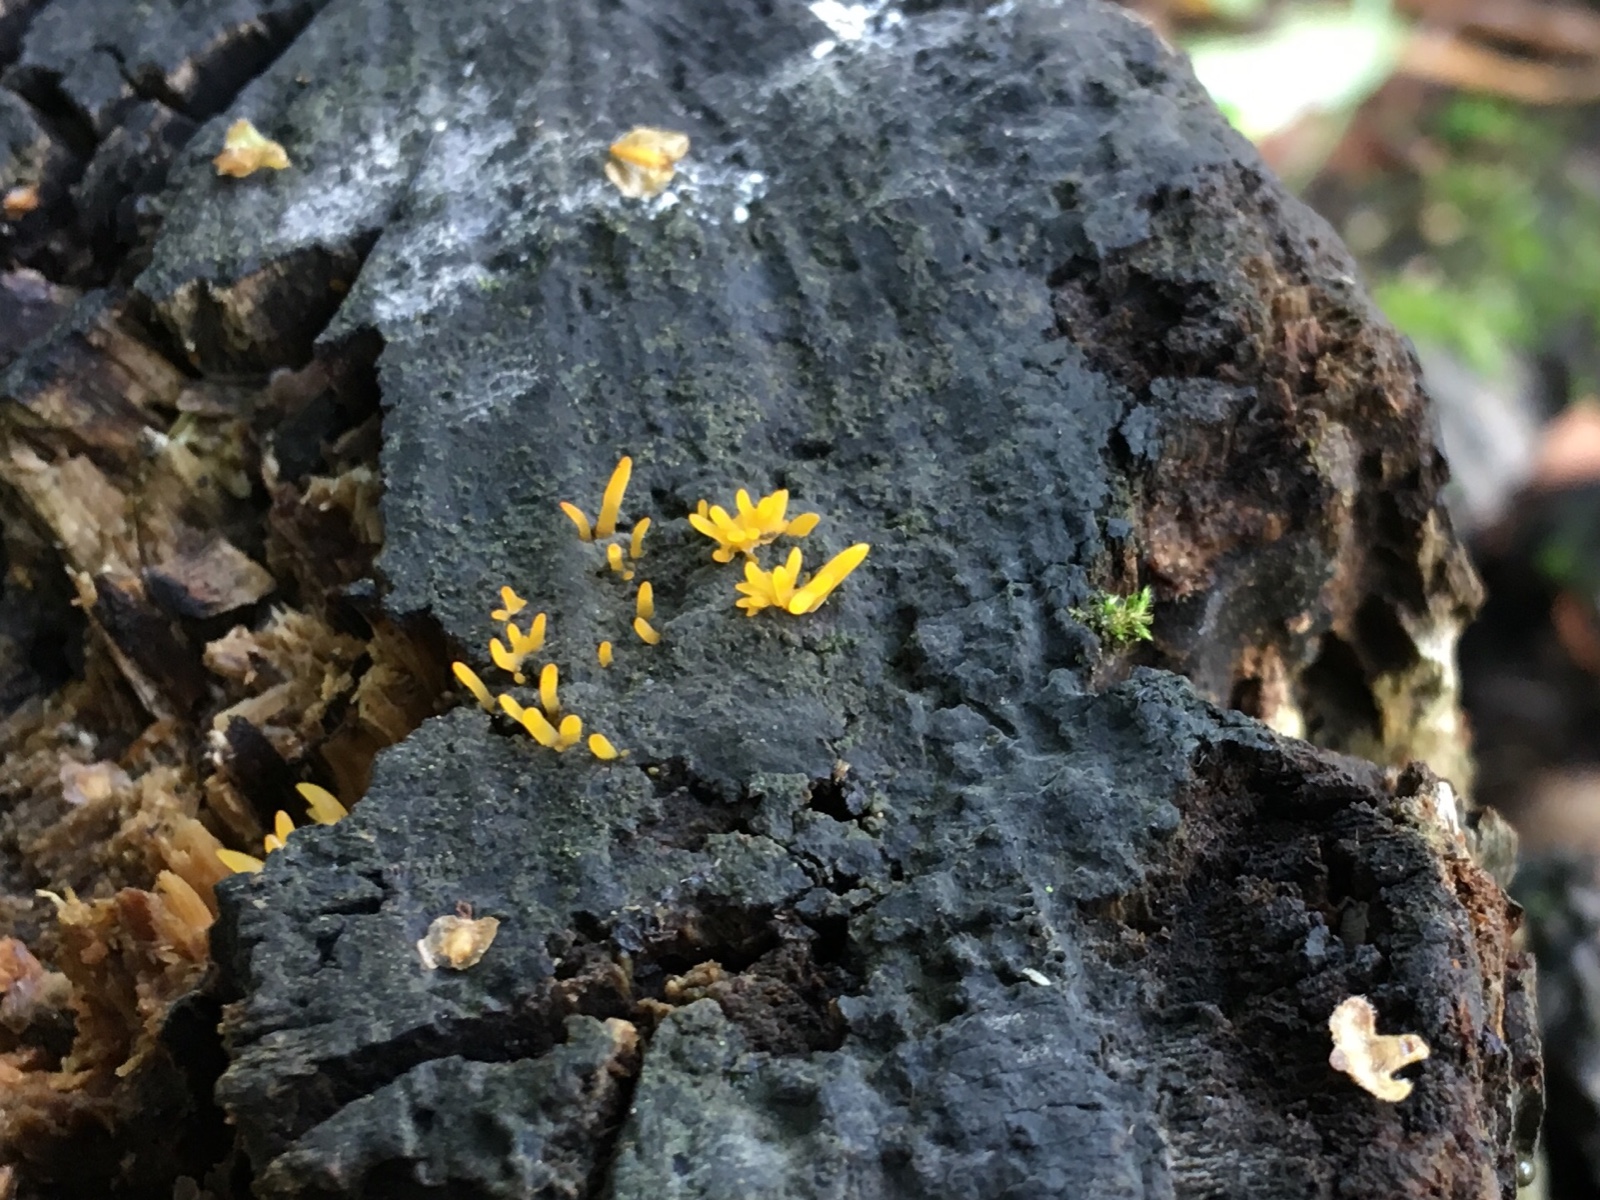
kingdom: Fungi
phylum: Basidiomycota
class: Dacrymycetes
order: Dacrymycetales
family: Dacrymycetaceae
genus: Calocera
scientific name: Calocera cornea
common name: liden guldgaffel
